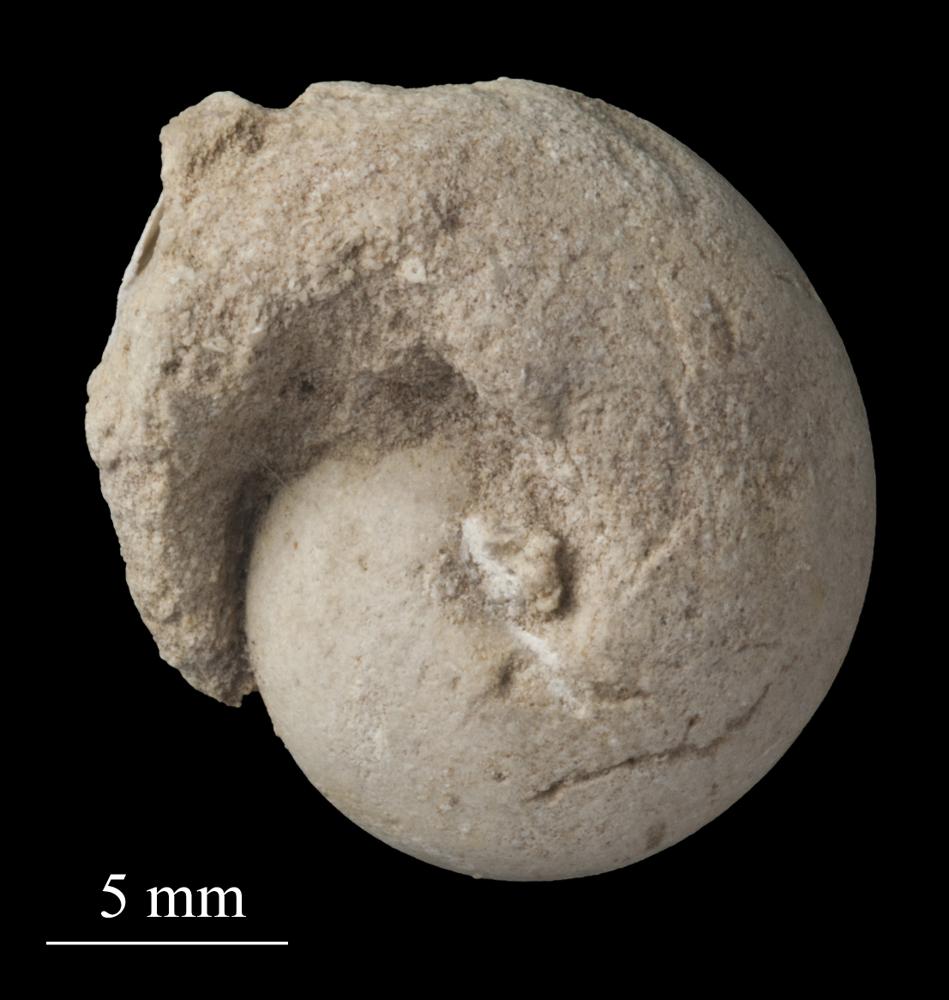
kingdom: Animalia
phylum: Mollusca
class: Gastropoda
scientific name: Gastropoda
